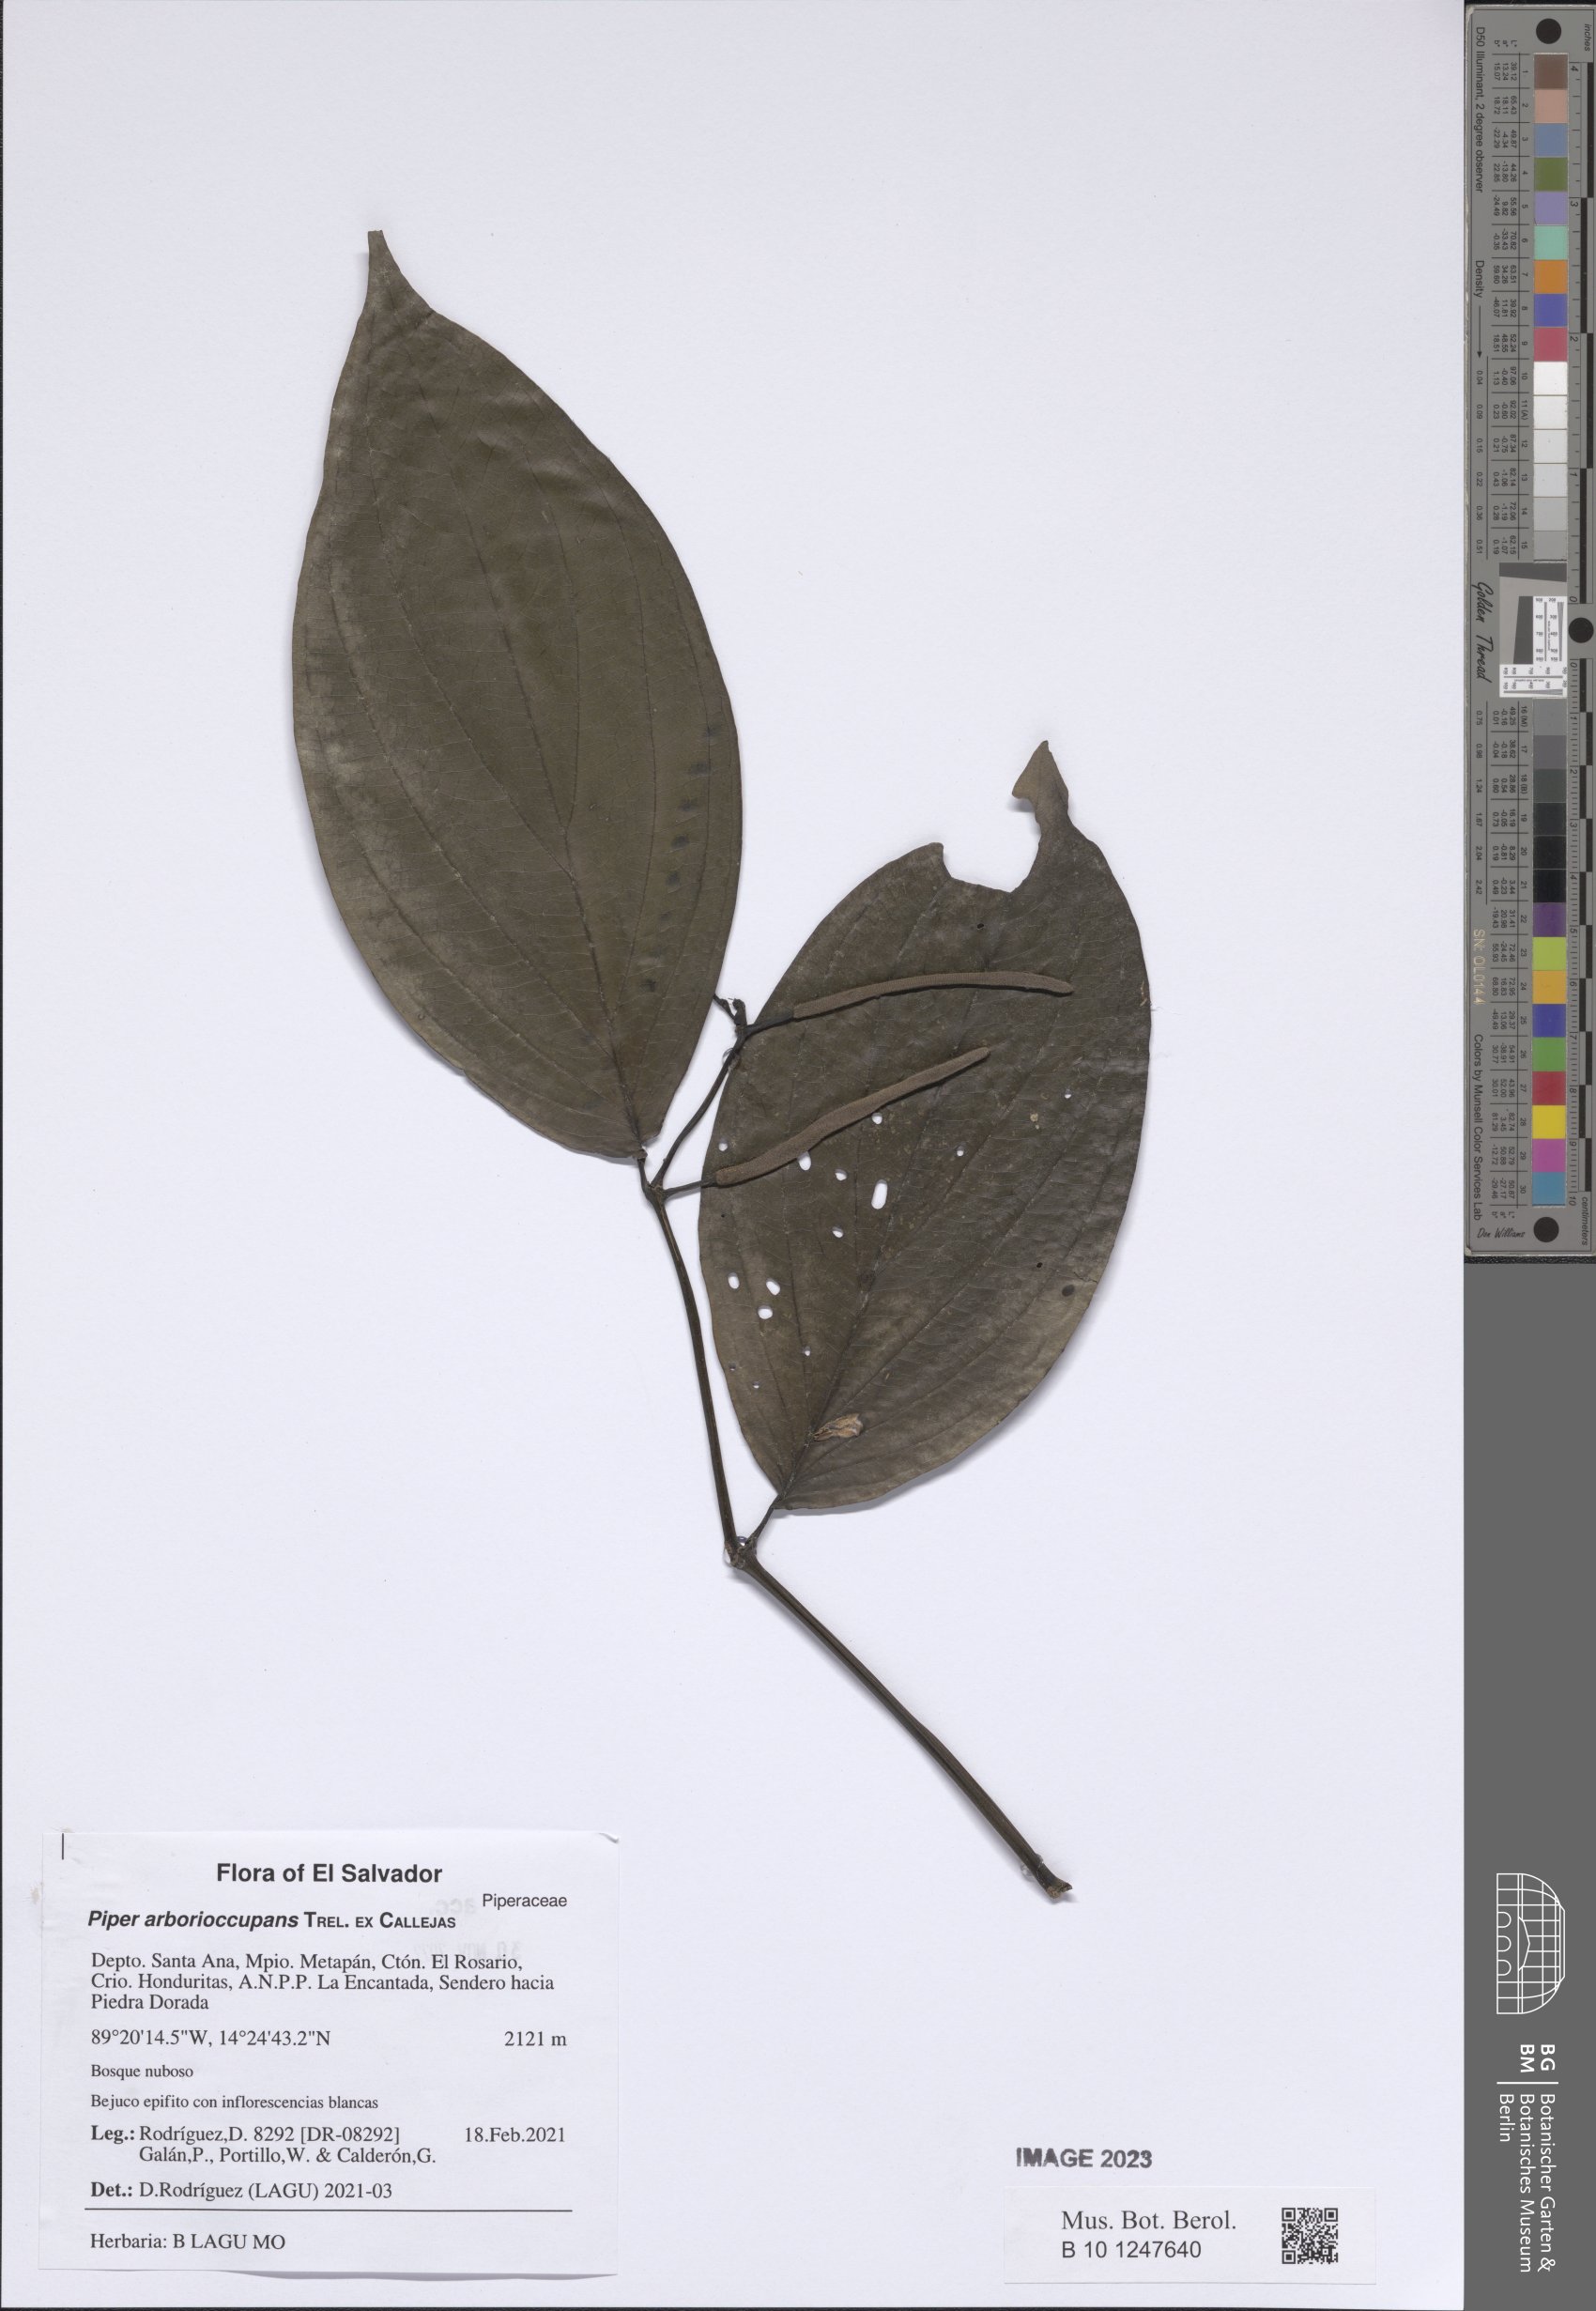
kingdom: Plantae
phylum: Tracheophyta
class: Magnoliopsida
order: Piperales
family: Piperaceae
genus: Piper
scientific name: Piper arborioccupans
